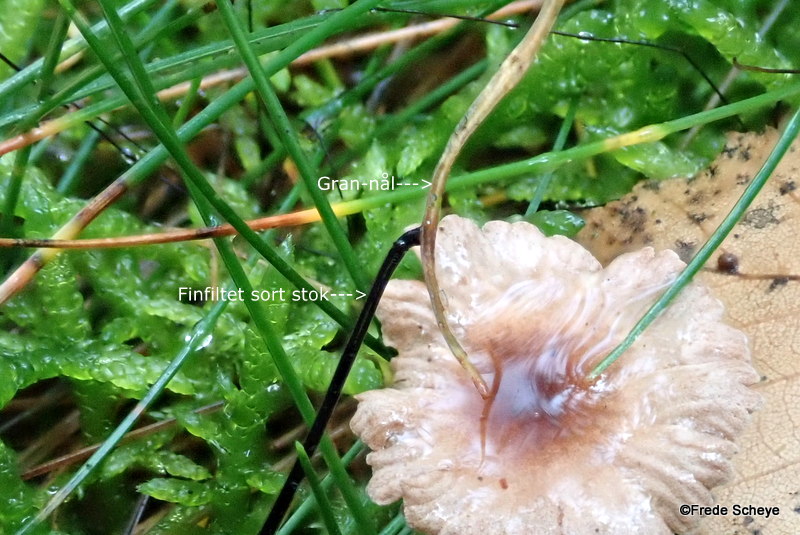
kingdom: Fungi
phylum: Basidiomycota
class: Agaricomycetes
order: Agaricales
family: Omphalotaceae
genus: Paragymnopus
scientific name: Paragymnopus perforans
